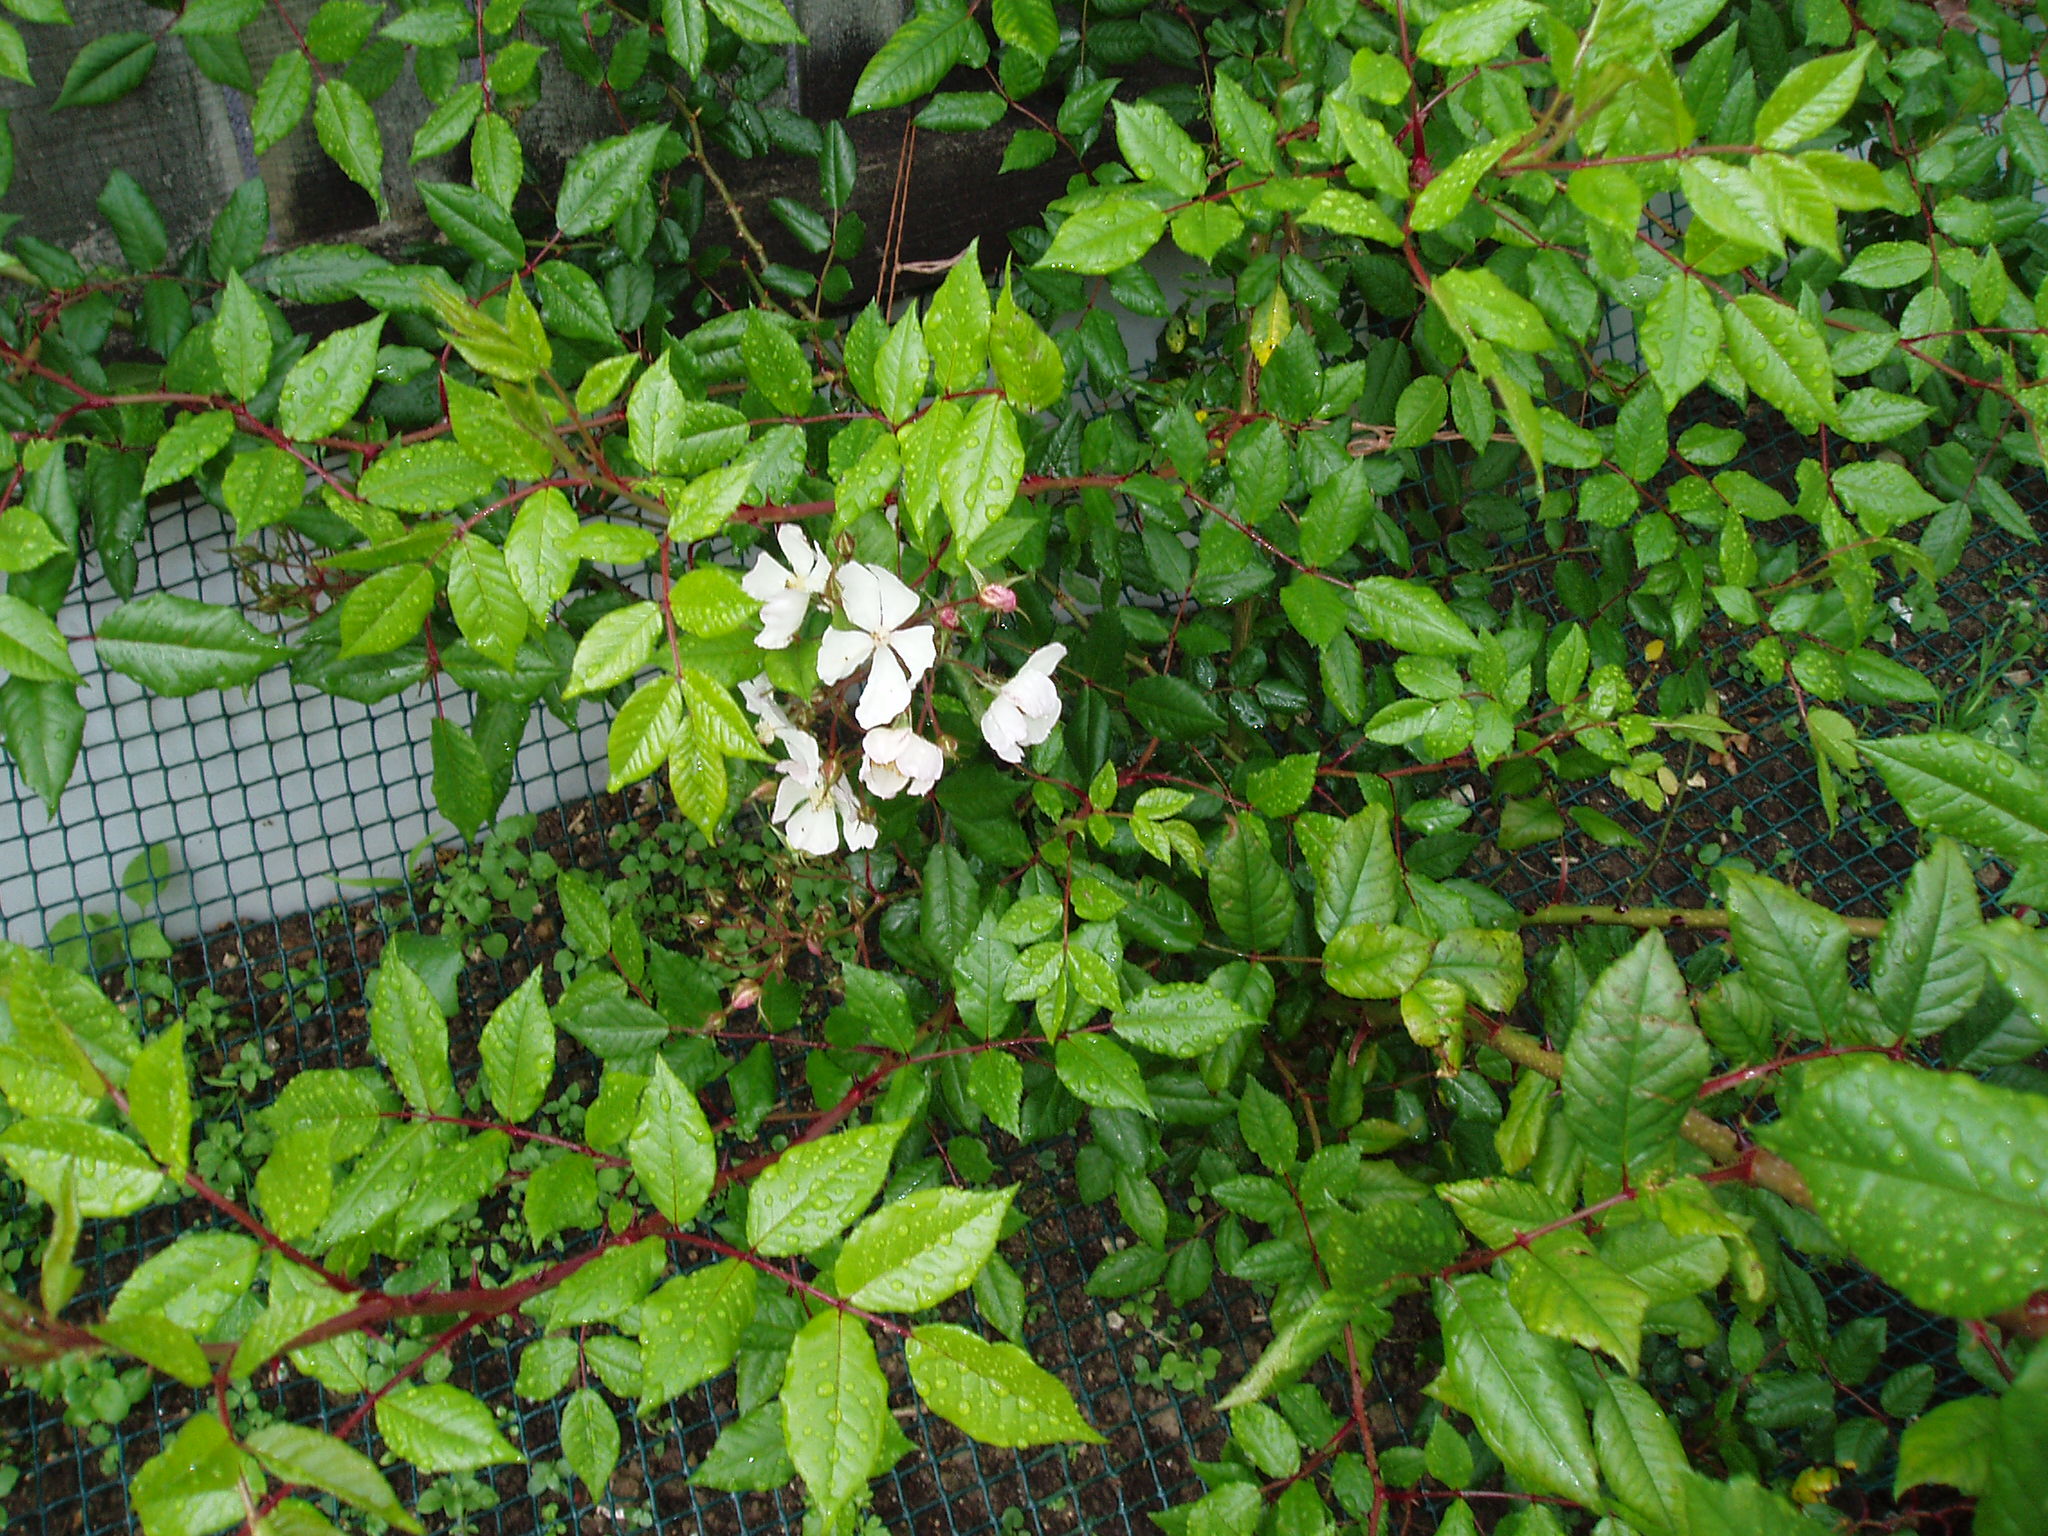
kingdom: Plantae
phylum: Tracheophyta
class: Magnoliopsida
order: Rosales
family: Rosaceae
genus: Rosa
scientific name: Rosa
